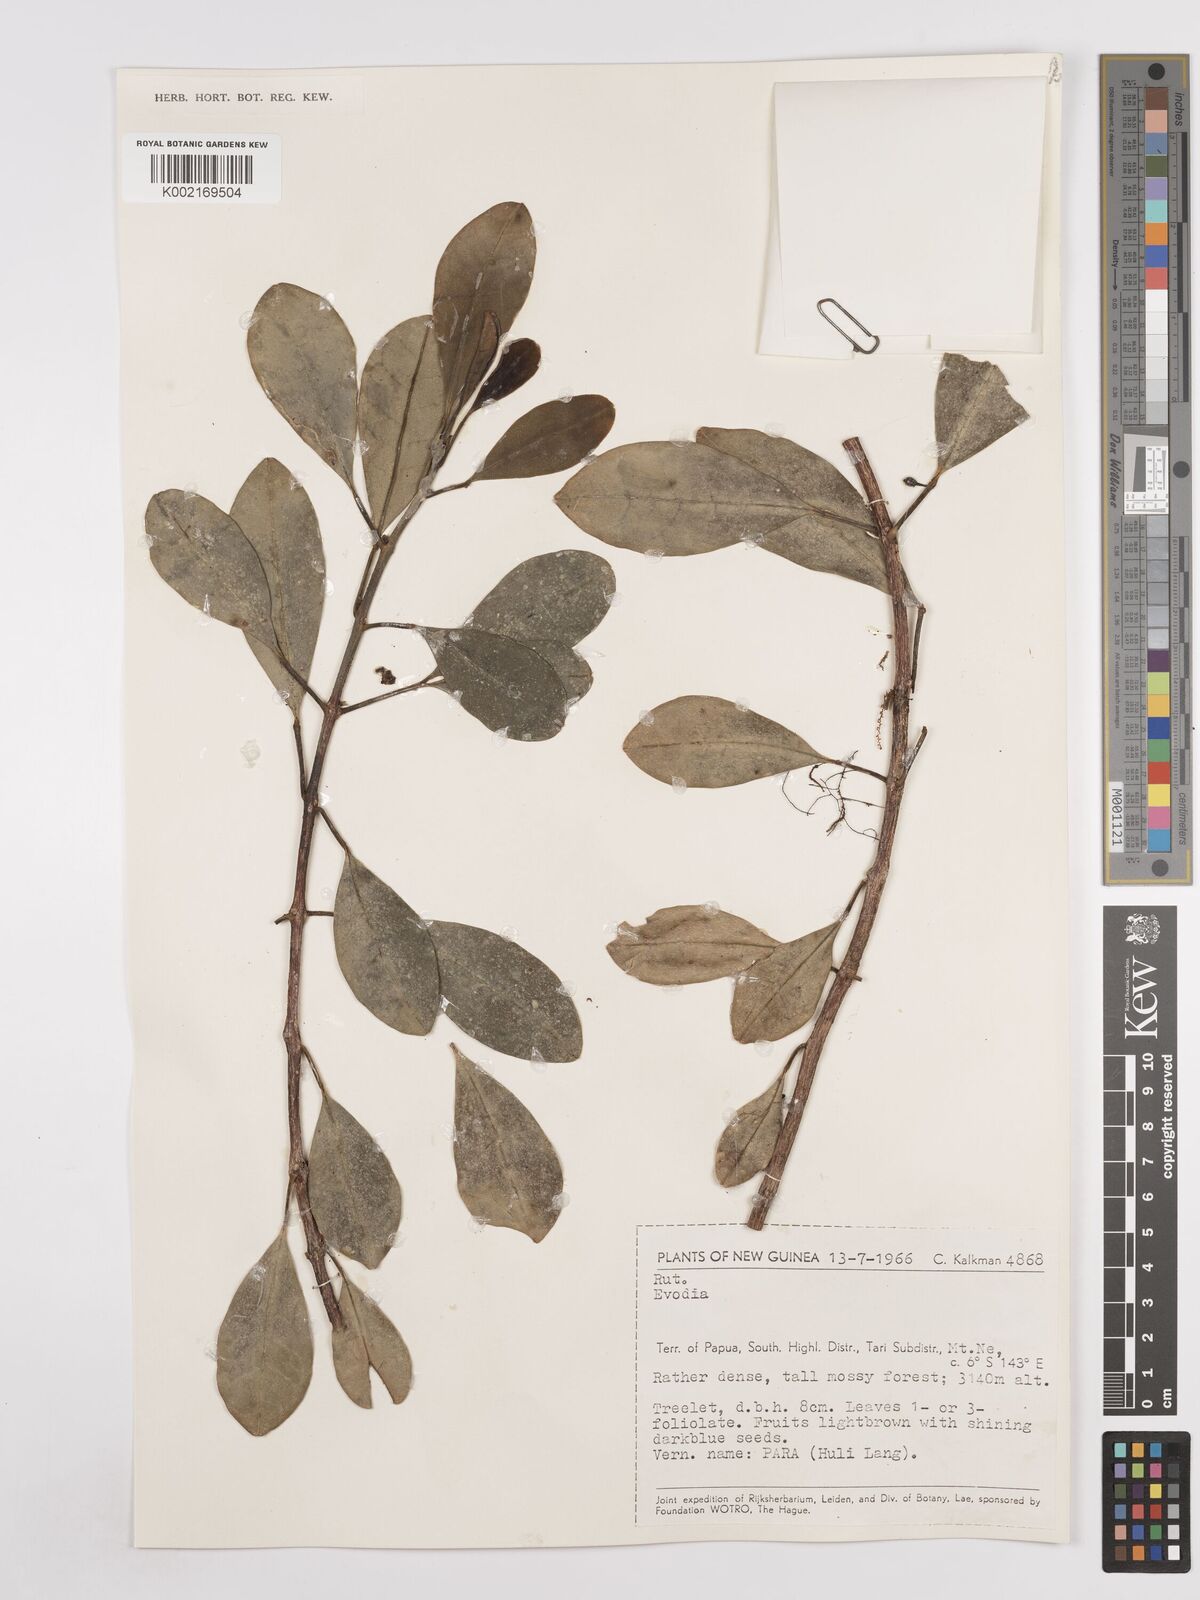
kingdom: Plantae
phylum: Tracheophyta
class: Magnoliopsida
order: Sapindales
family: Rutaceae
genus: Euodia
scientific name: Euodia
